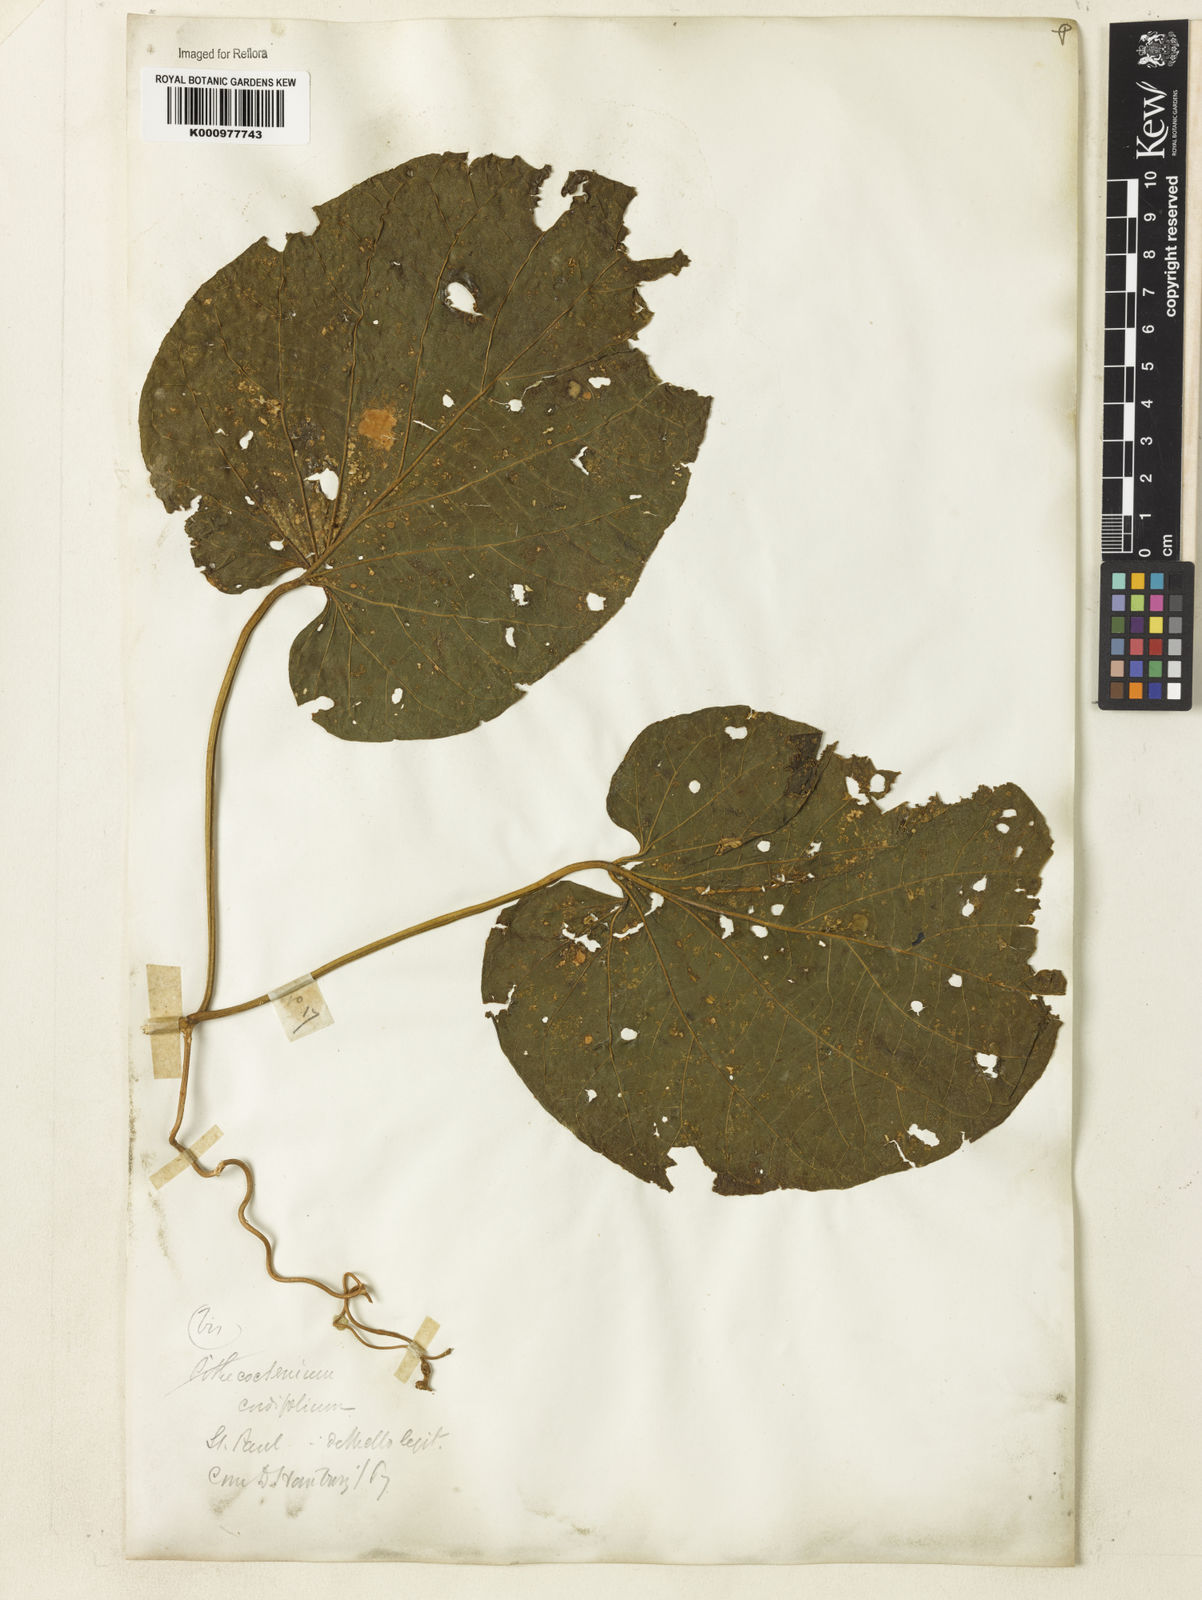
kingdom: Plantae
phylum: Tracheophyta
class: Magnoliopsida
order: Lamiales
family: Bignoniaceae
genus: Amphilophium
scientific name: Amphilophium crucigerum
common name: Monkey comb
